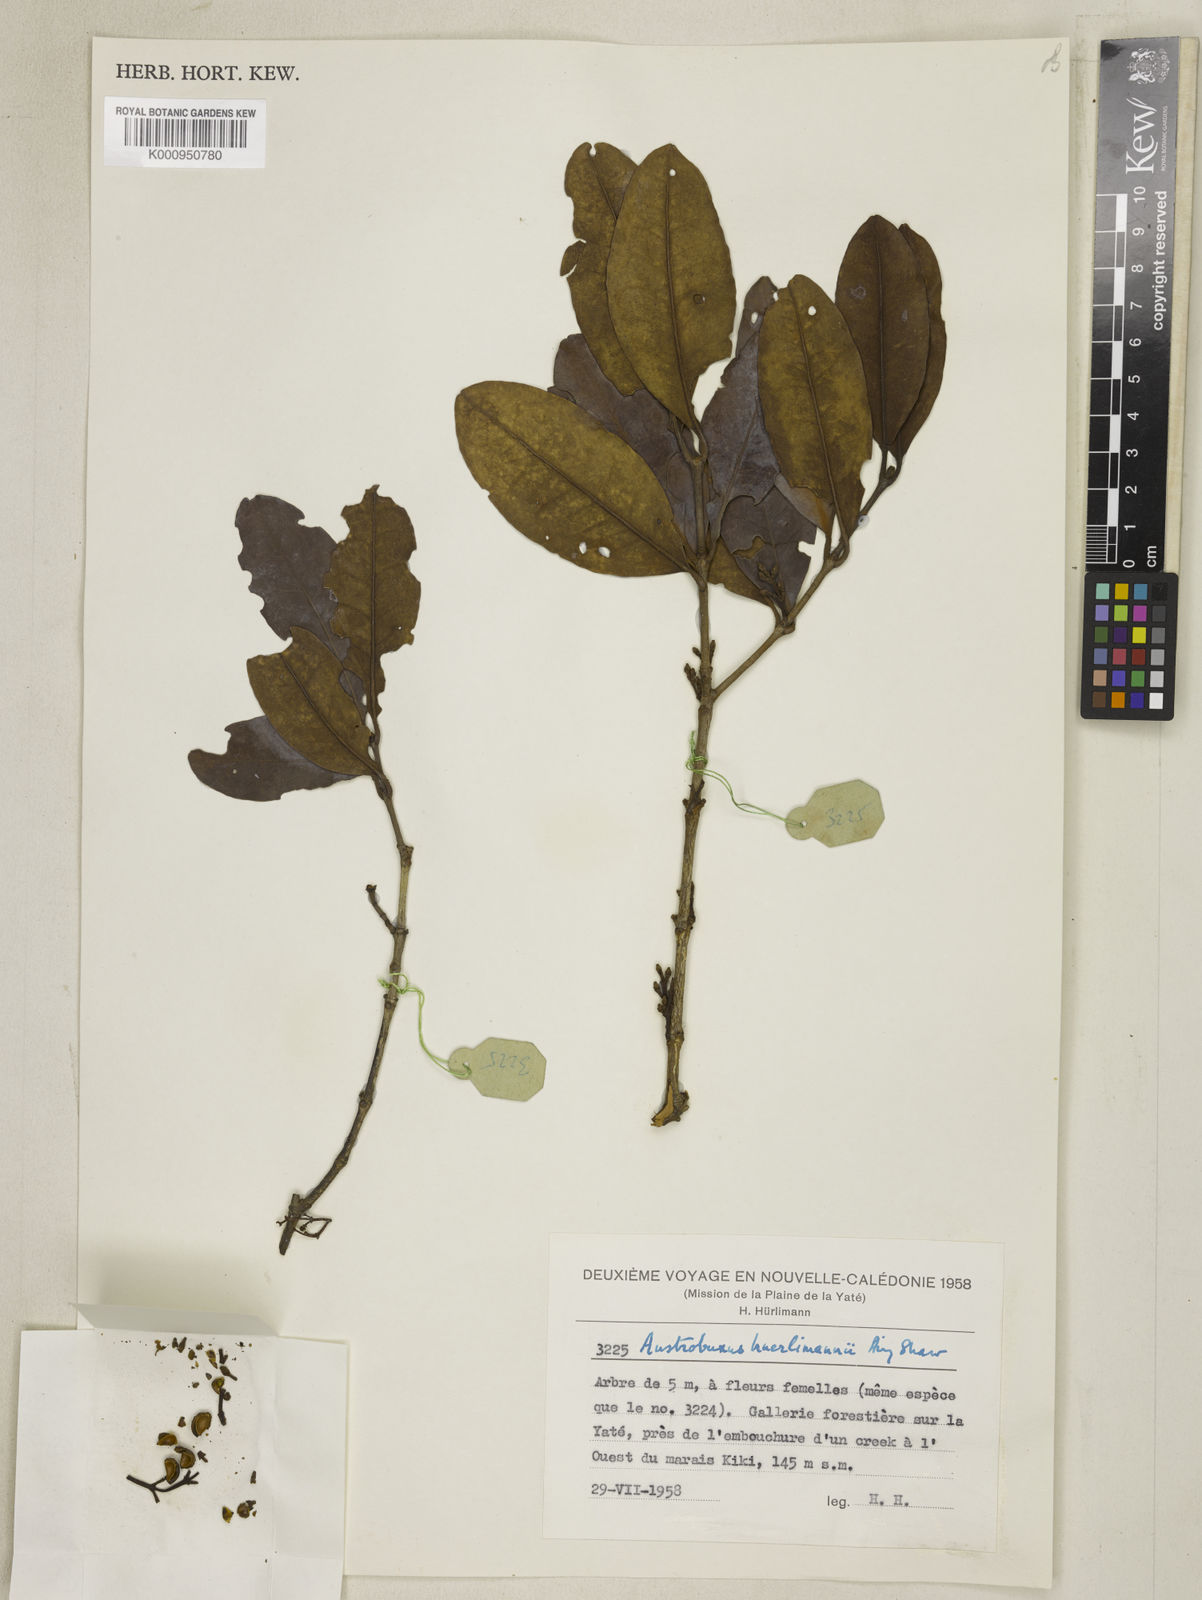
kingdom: Plantae
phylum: Tracheophyta
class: Magnoliopsida
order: Malpighiales
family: Picrodendraceae
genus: Austrobuxus
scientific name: Austrobuxus huerlimannii
